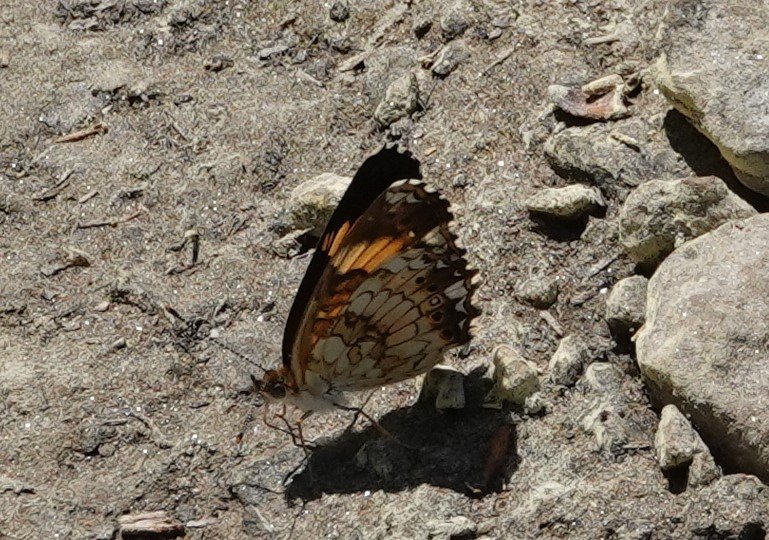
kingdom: Animalia
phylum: Arthropoda
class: Insecta
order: Lepidoptera
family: Nymphalidae
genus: Chlosyne
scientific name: Chlosyne nycteis
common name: Silvery Checkerspot
